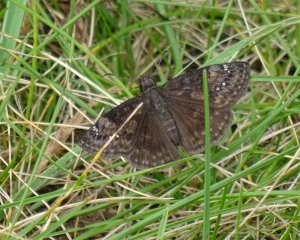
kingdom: Animalia
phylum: Arthropoda
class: Insecta
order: Lepidoptera
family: Hesperiidae
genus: Gesta
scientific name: Gesta
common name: Wild Indigo Duskywing
